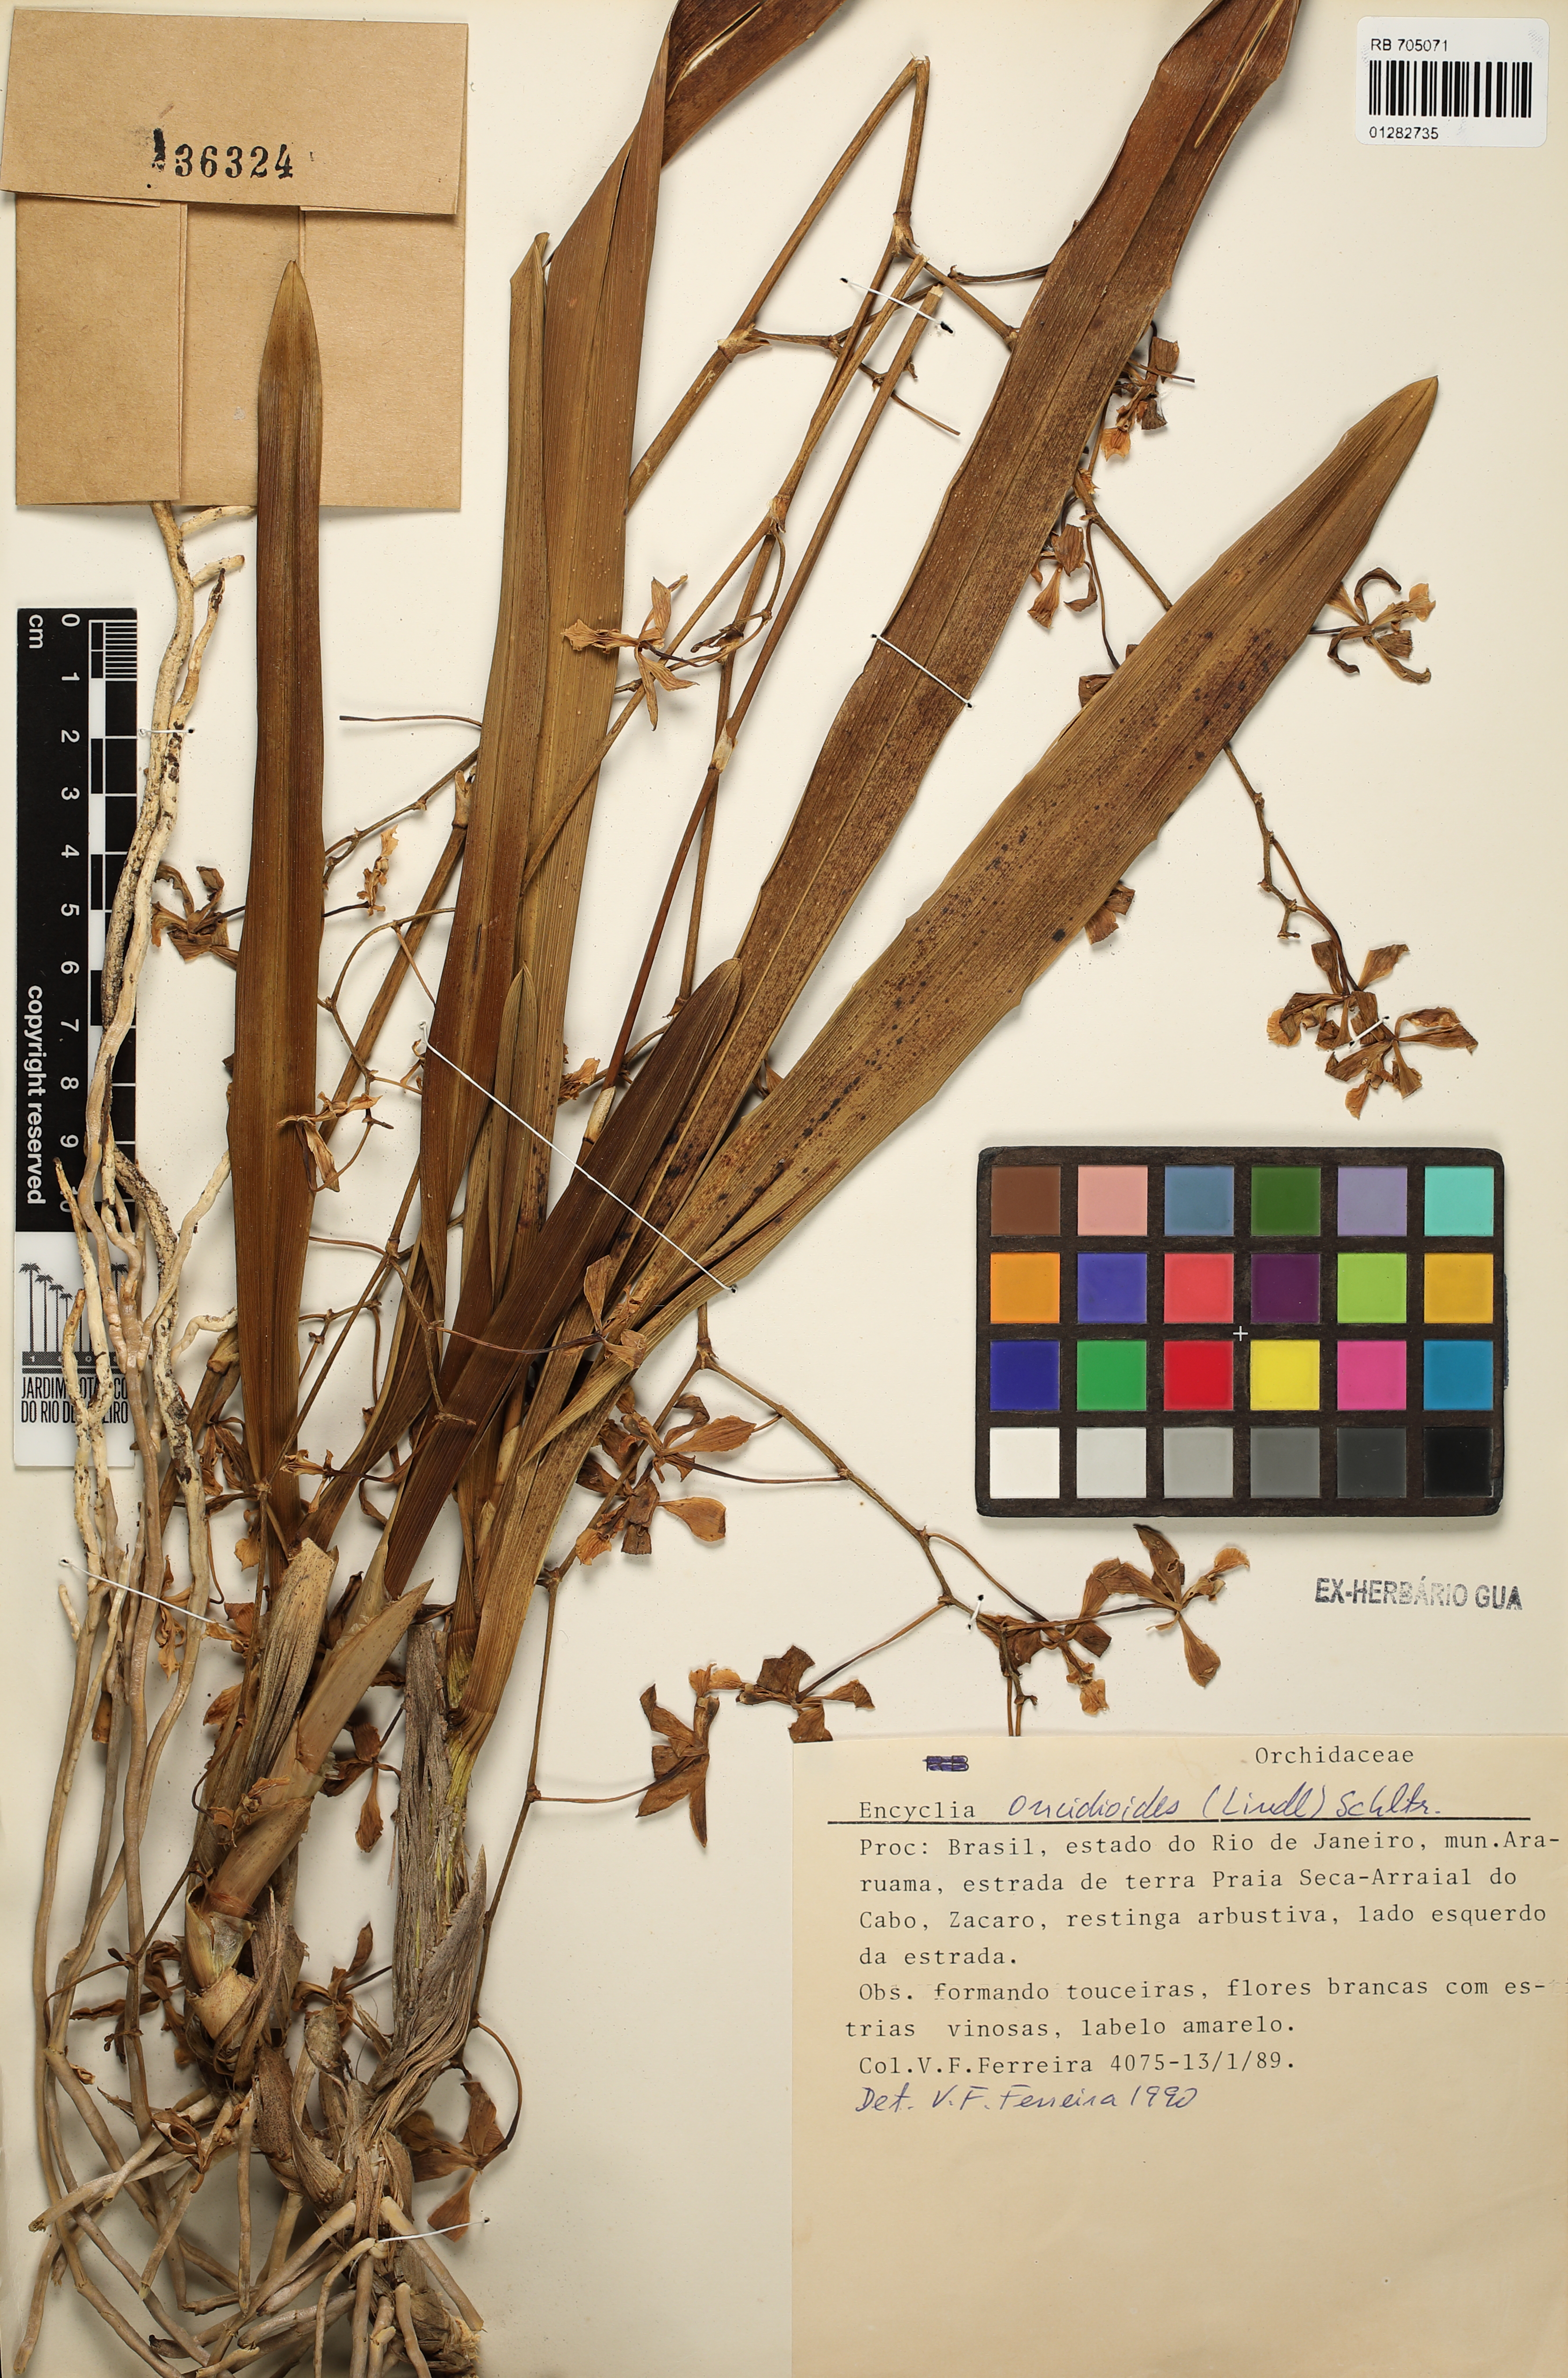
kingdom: Plantae
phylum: Tracheophyta
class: Liliopsida
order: Asparagales
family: Orchidaceae
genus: Encyclia
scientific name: Encyclia oncidioides
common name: Heavyfruit butterfly orchid
